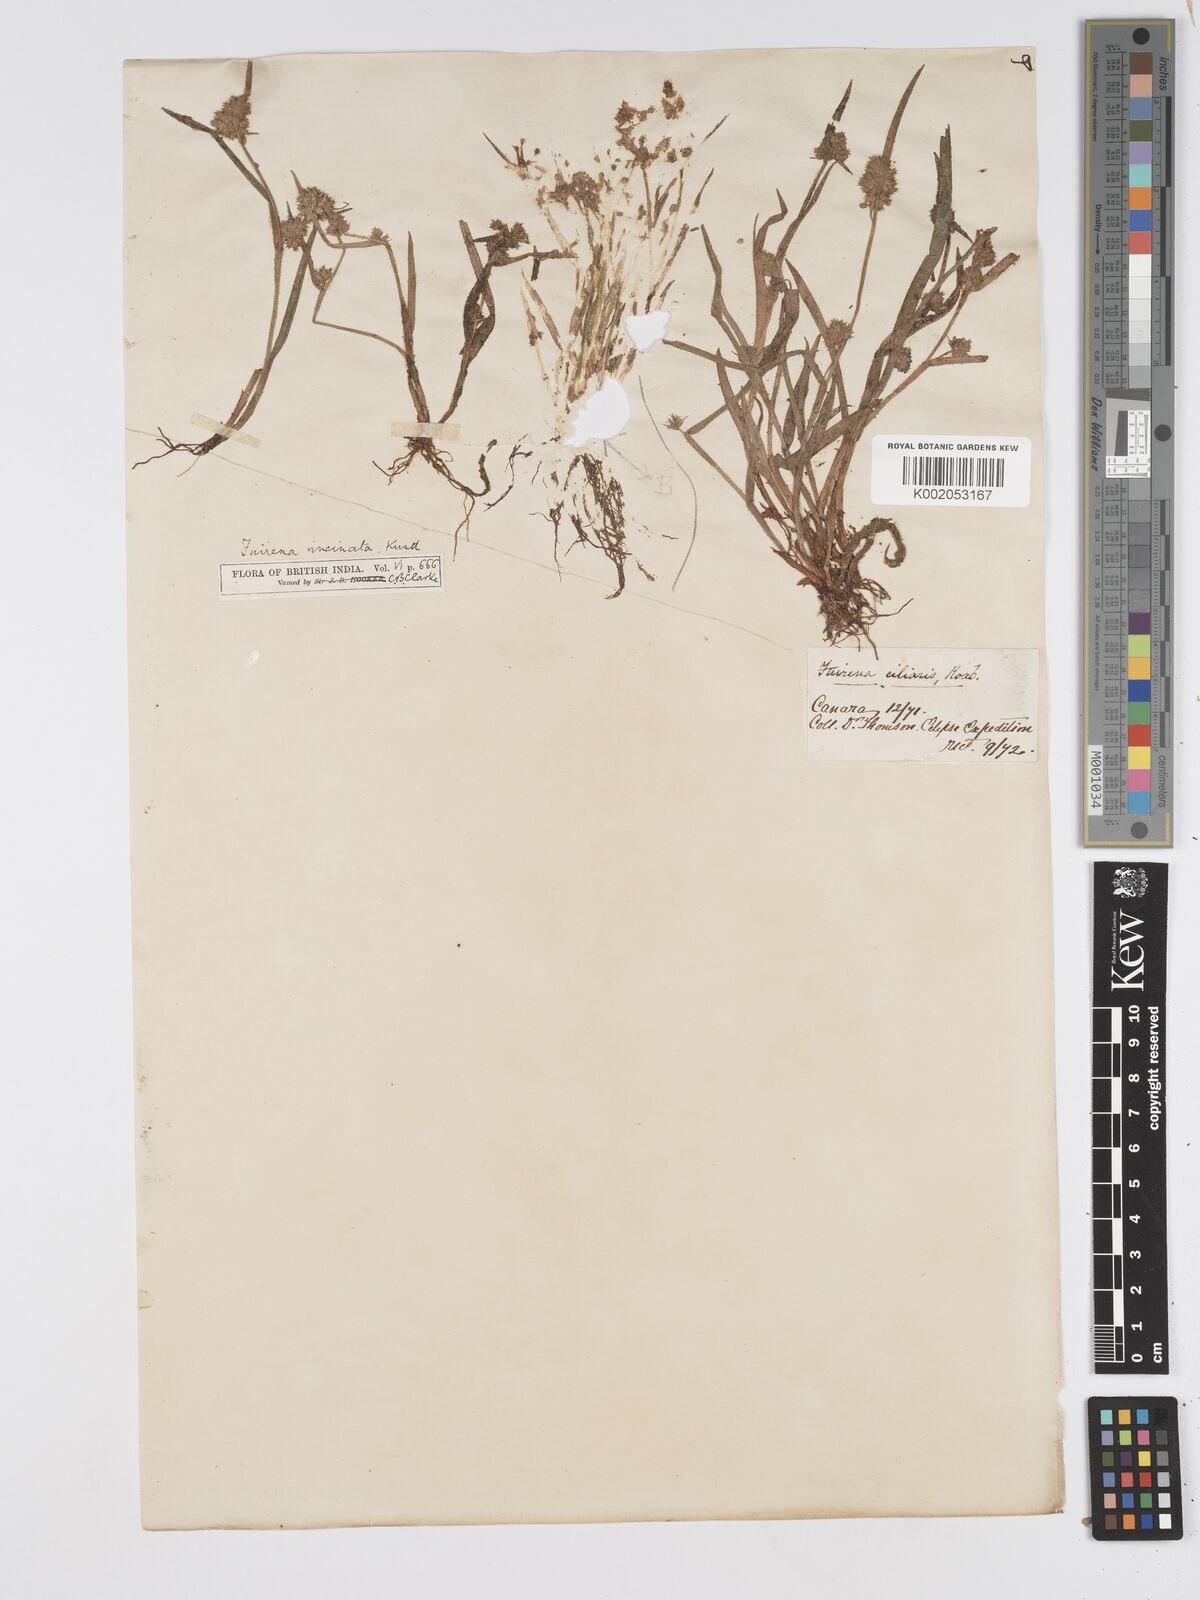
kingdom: Plantae
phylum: Tracheophyta
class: Liliopsida
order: Poales
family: Cyperaceae
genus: Fuirena
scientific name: Fuirena uncinata
